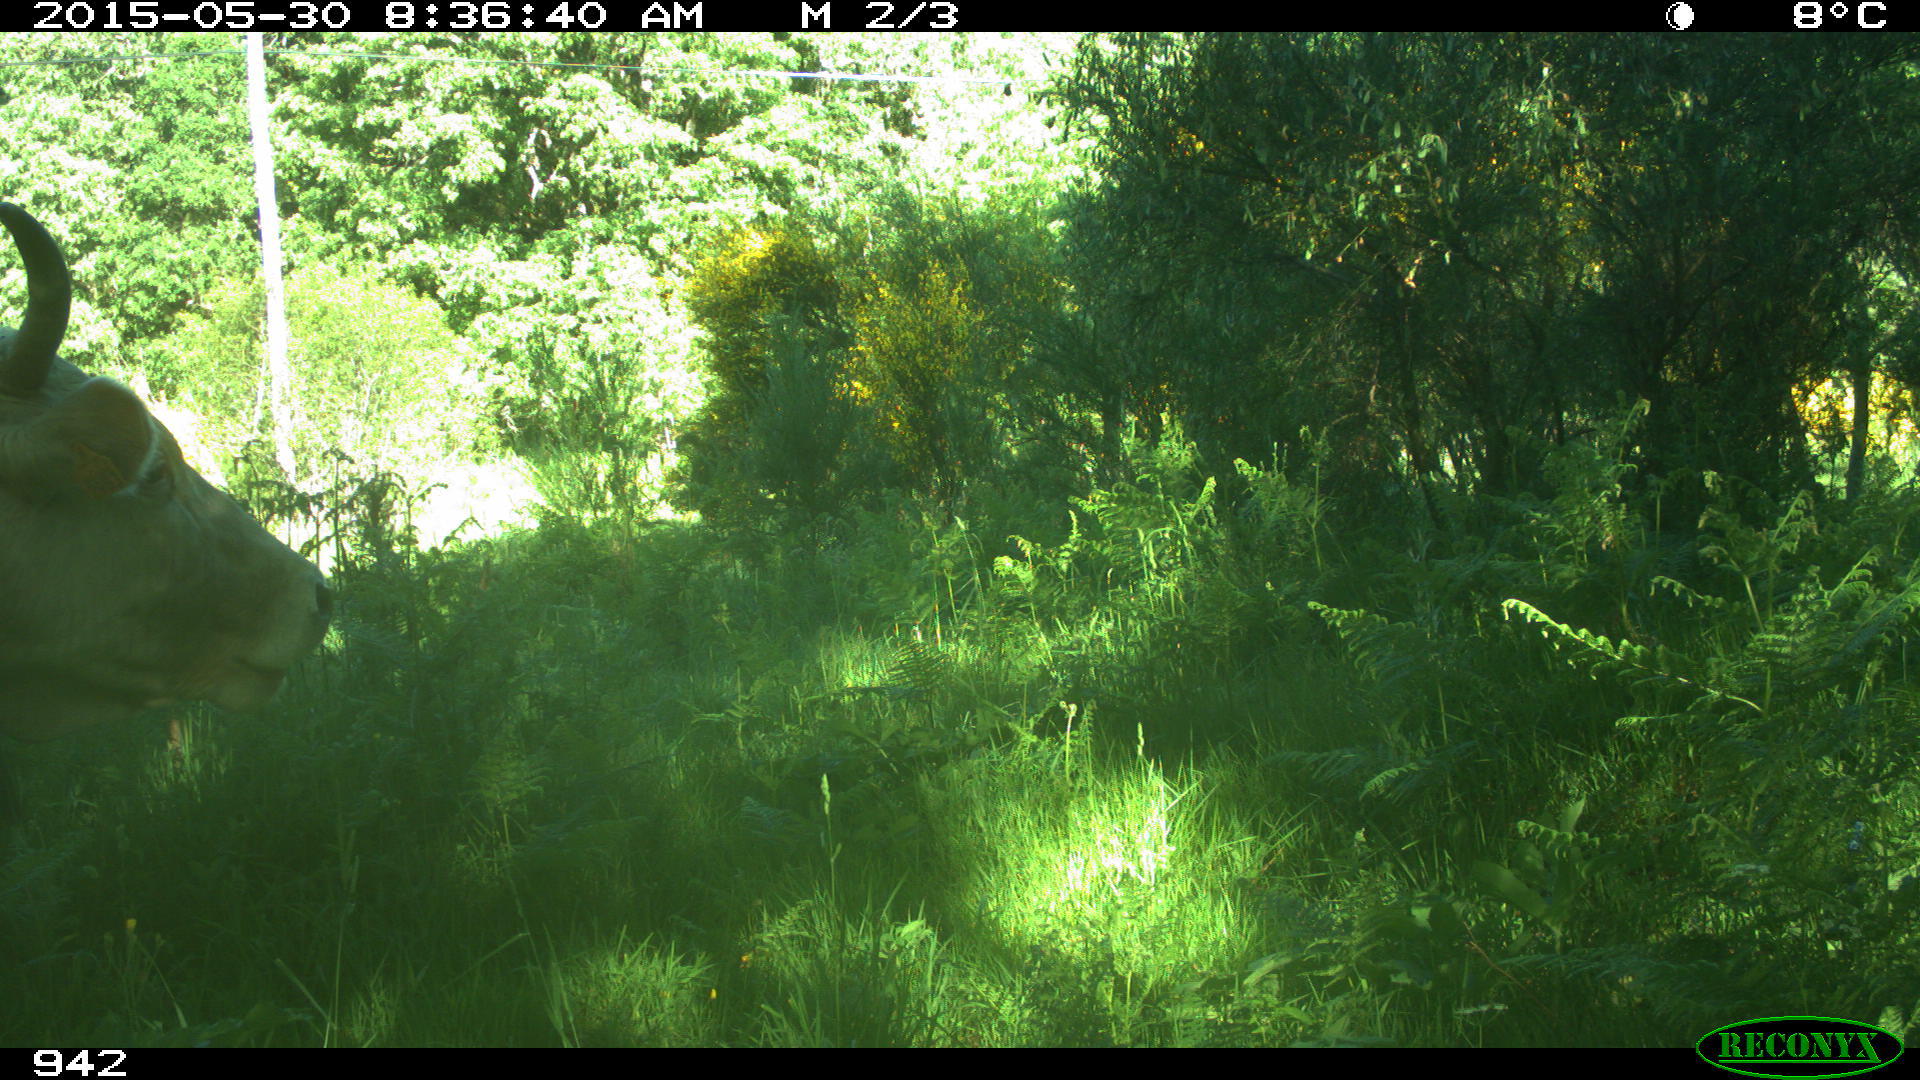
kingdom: Animalia
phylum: Chordata
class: Mammalia
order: Artiodactyla
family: Bovidae
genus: Bos
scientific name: Bos taurus
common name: Domesticated cattle
